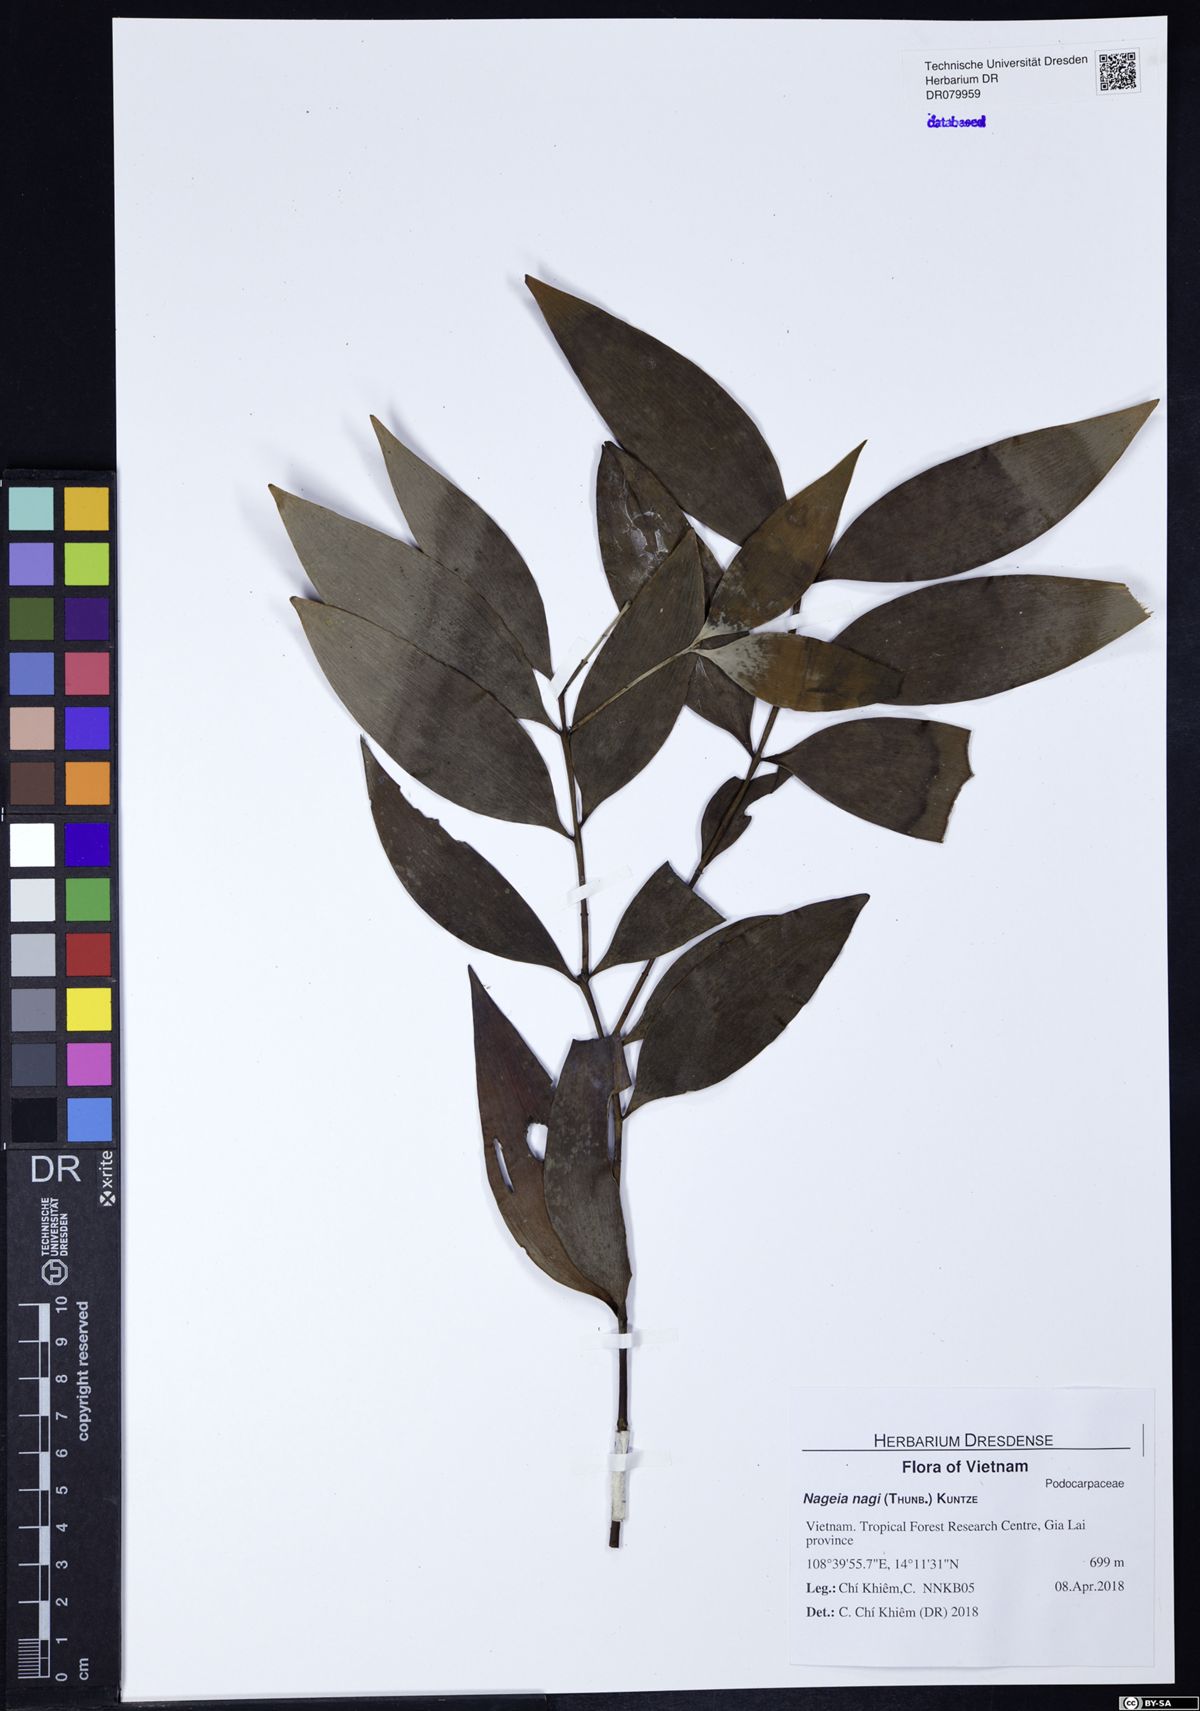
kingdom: Plantae
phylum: Tracheophyta
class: Pinopsida
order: Pinales
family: Podocarpaceae
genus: Nageia
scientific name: Nageia nagi
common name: Kaphal
